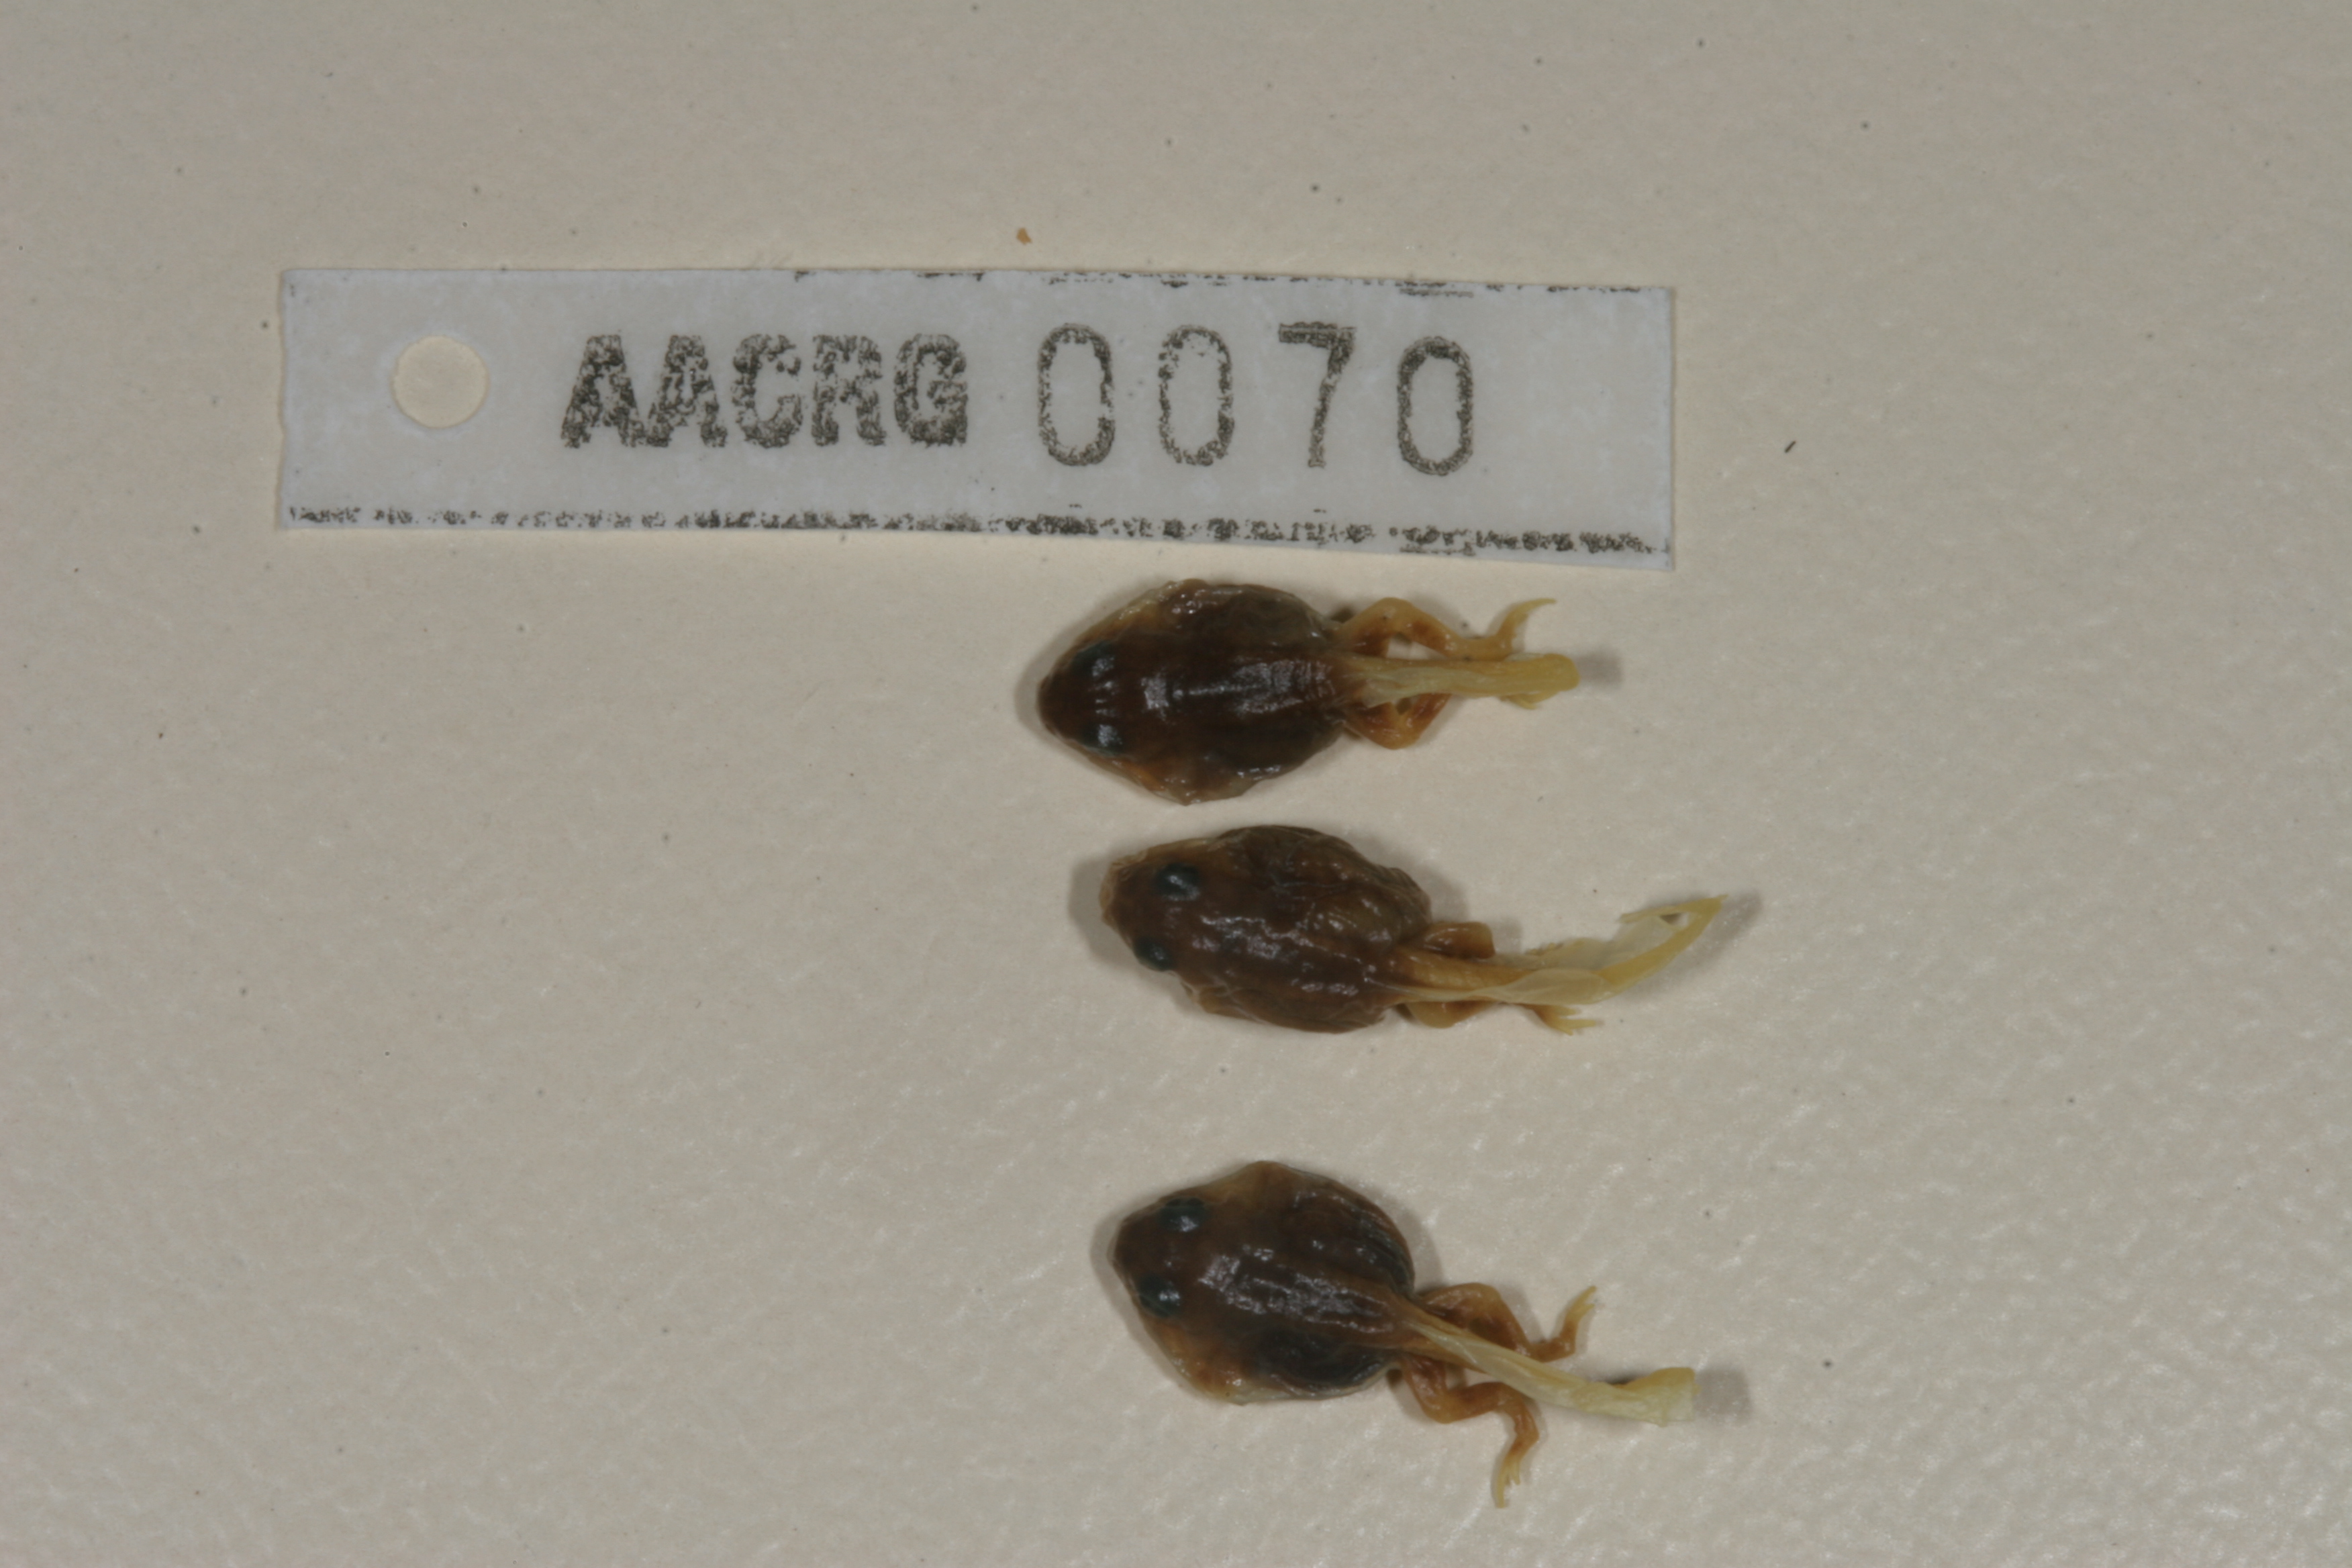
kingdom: Animalia
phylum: Chordata
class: Amphibia
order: Anura
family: Bufonidae
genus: Poyntonophrynus
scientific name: Poyntonophrynus vertebralis
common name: Southern pygmy toad
